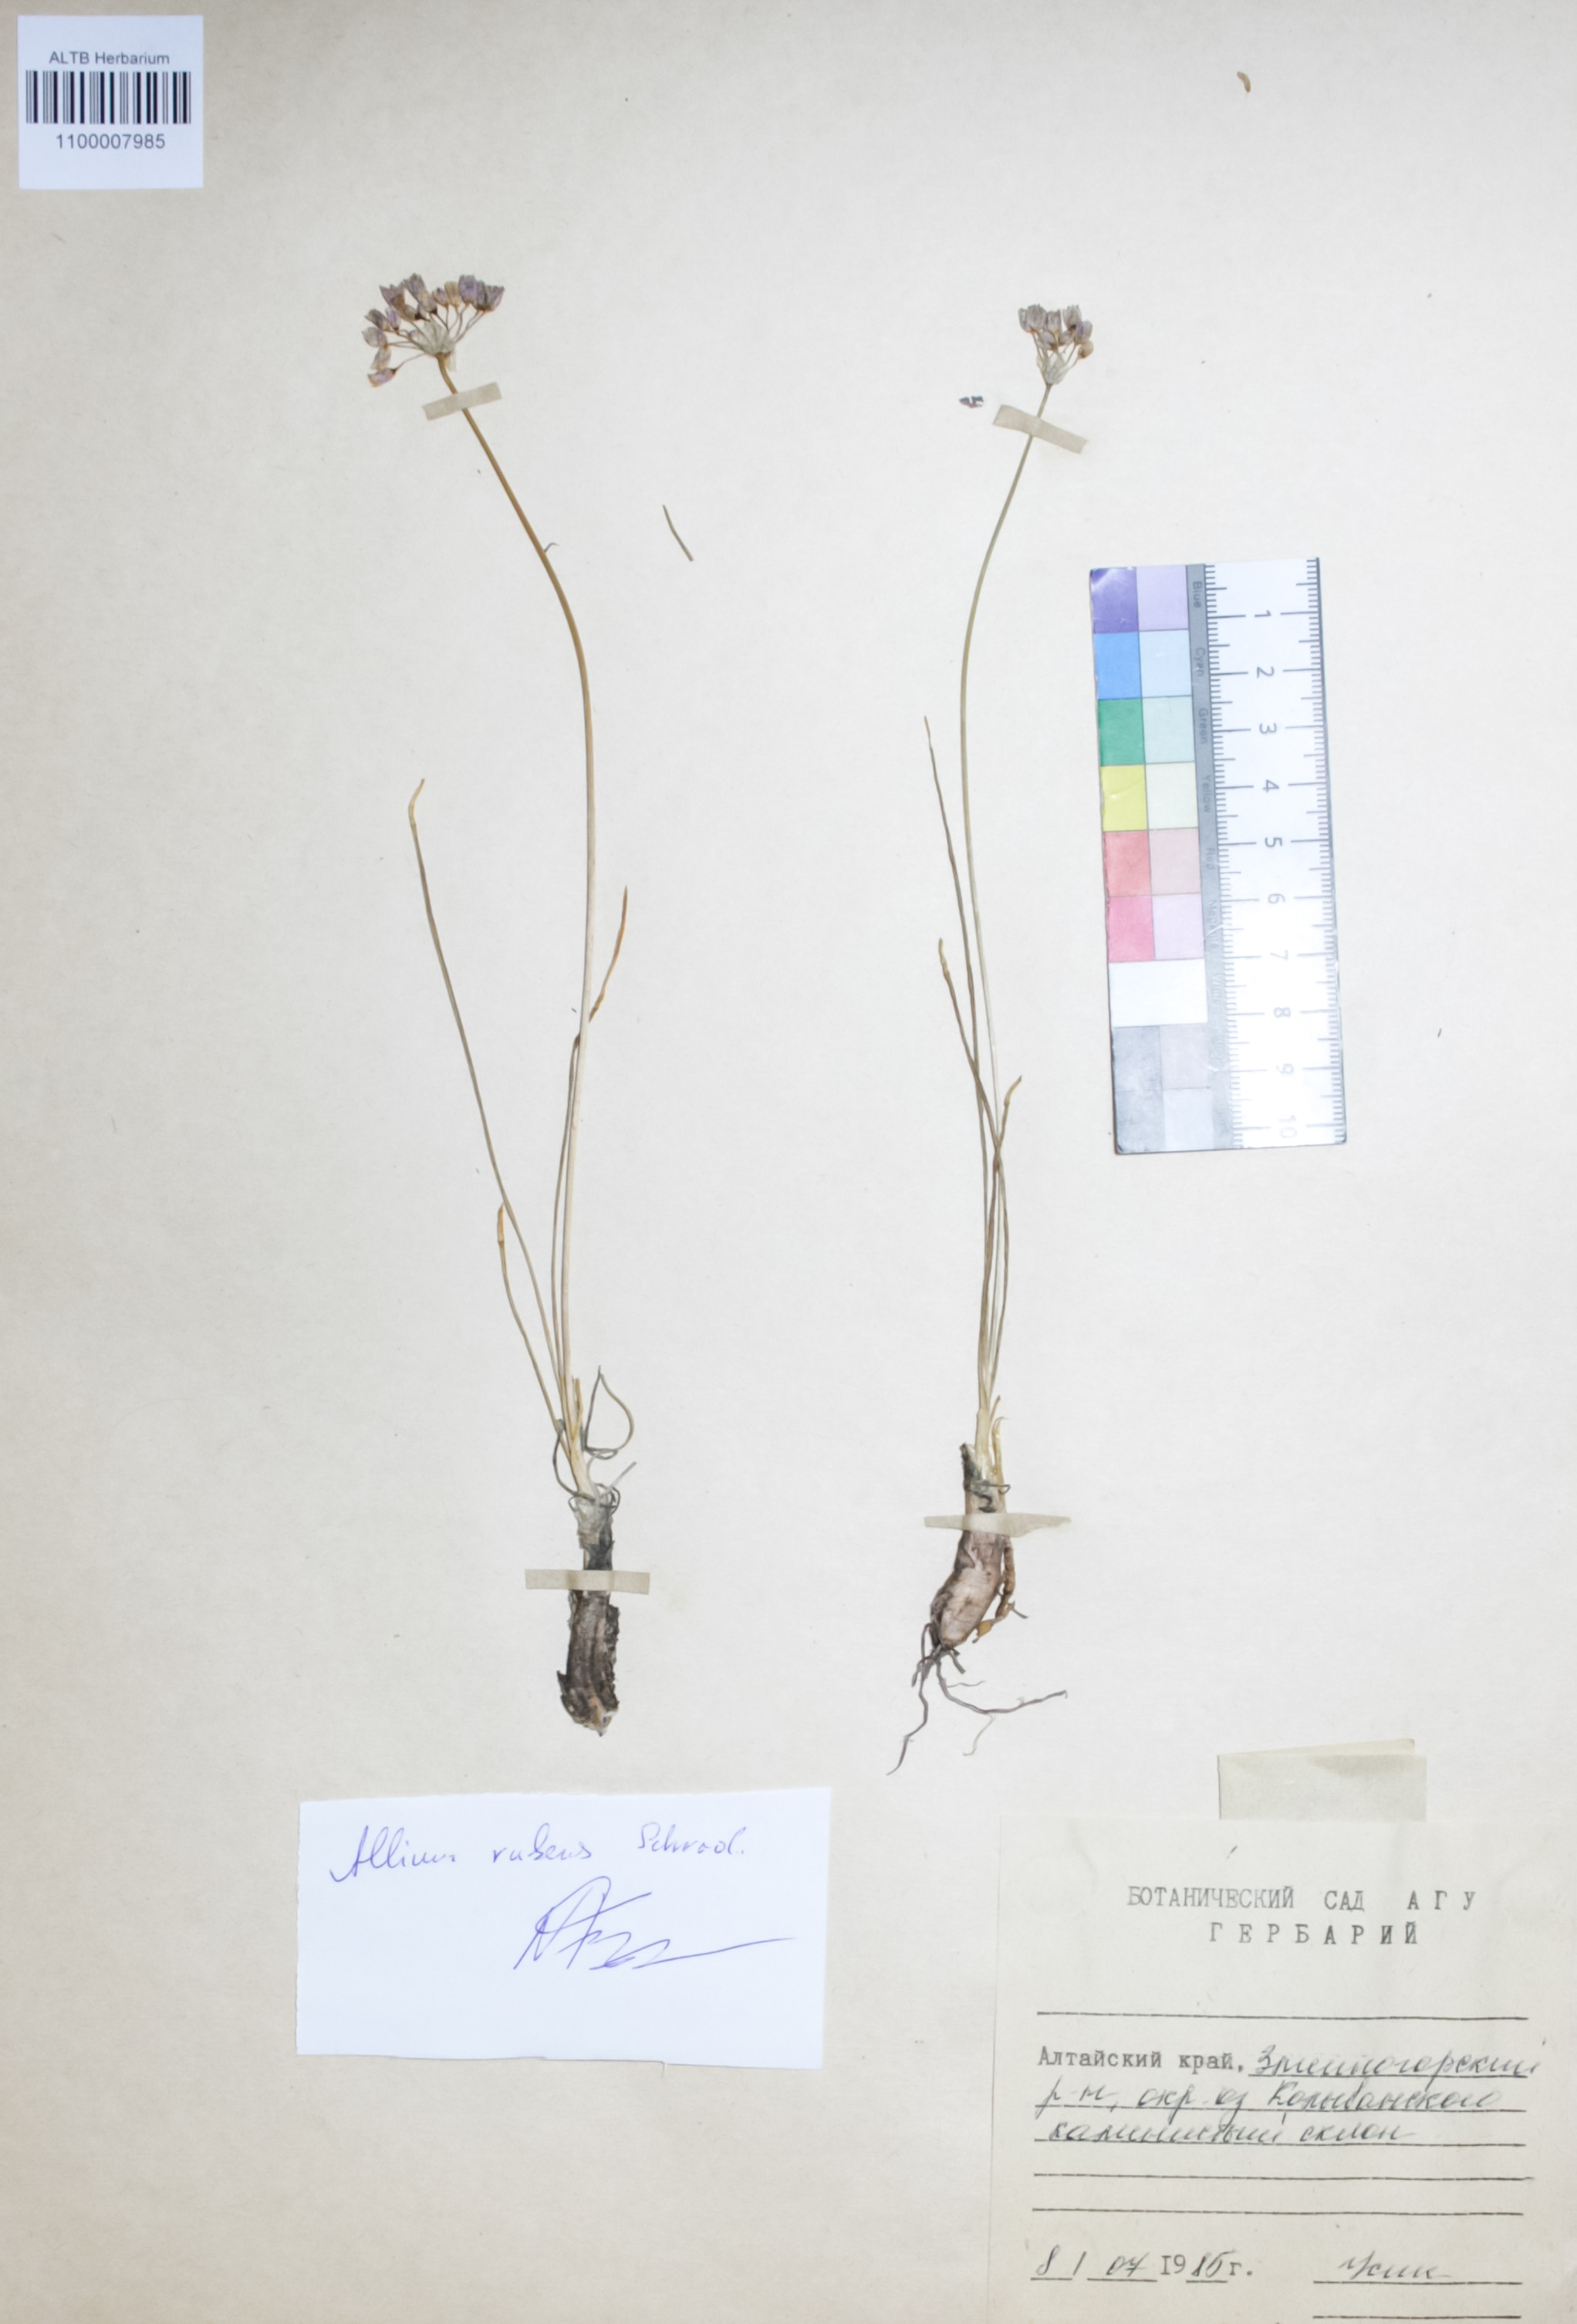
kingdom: Plantae
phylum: Tracheophyta
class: Liliopsida
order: Asparagales
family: Amaryllidaceae
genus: Allium
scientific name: Allium rubens
